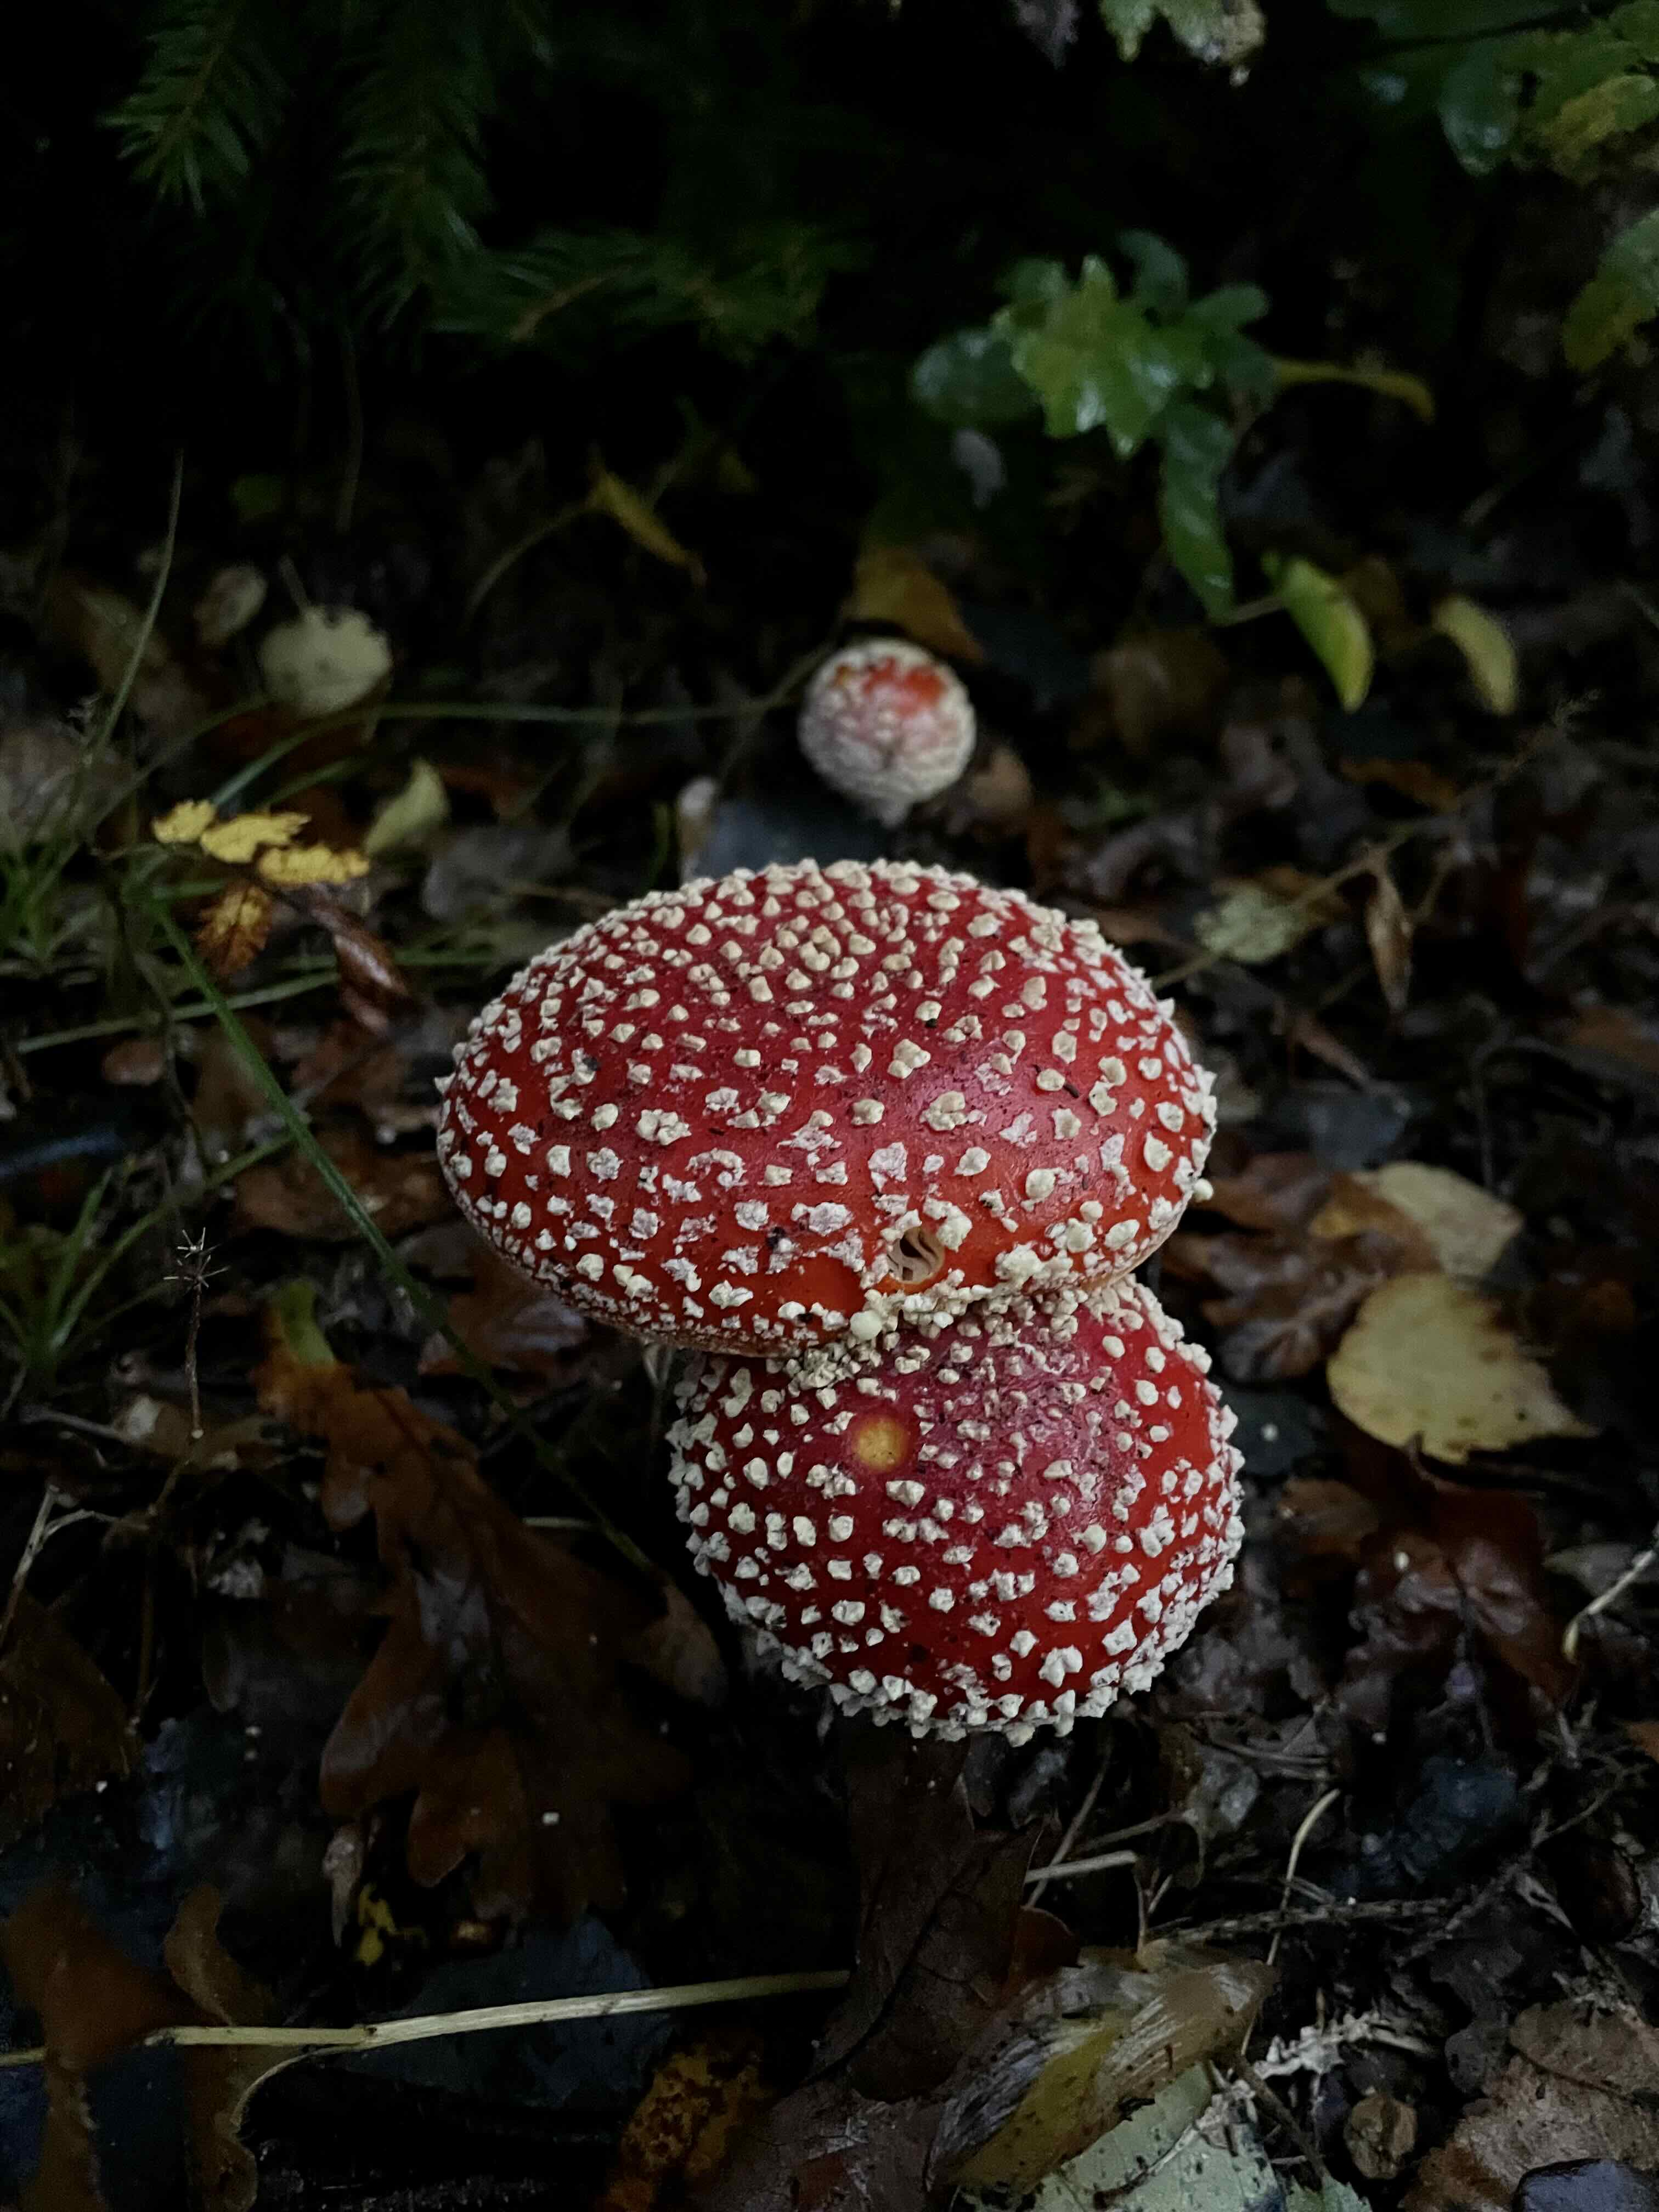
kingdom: Fungi
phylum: Basidiomycota
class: Agaricomycetes
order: Agaricales
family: Amanitaceae
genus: Amanita
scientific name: Amanita muscaria
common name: rød fluesvamp
